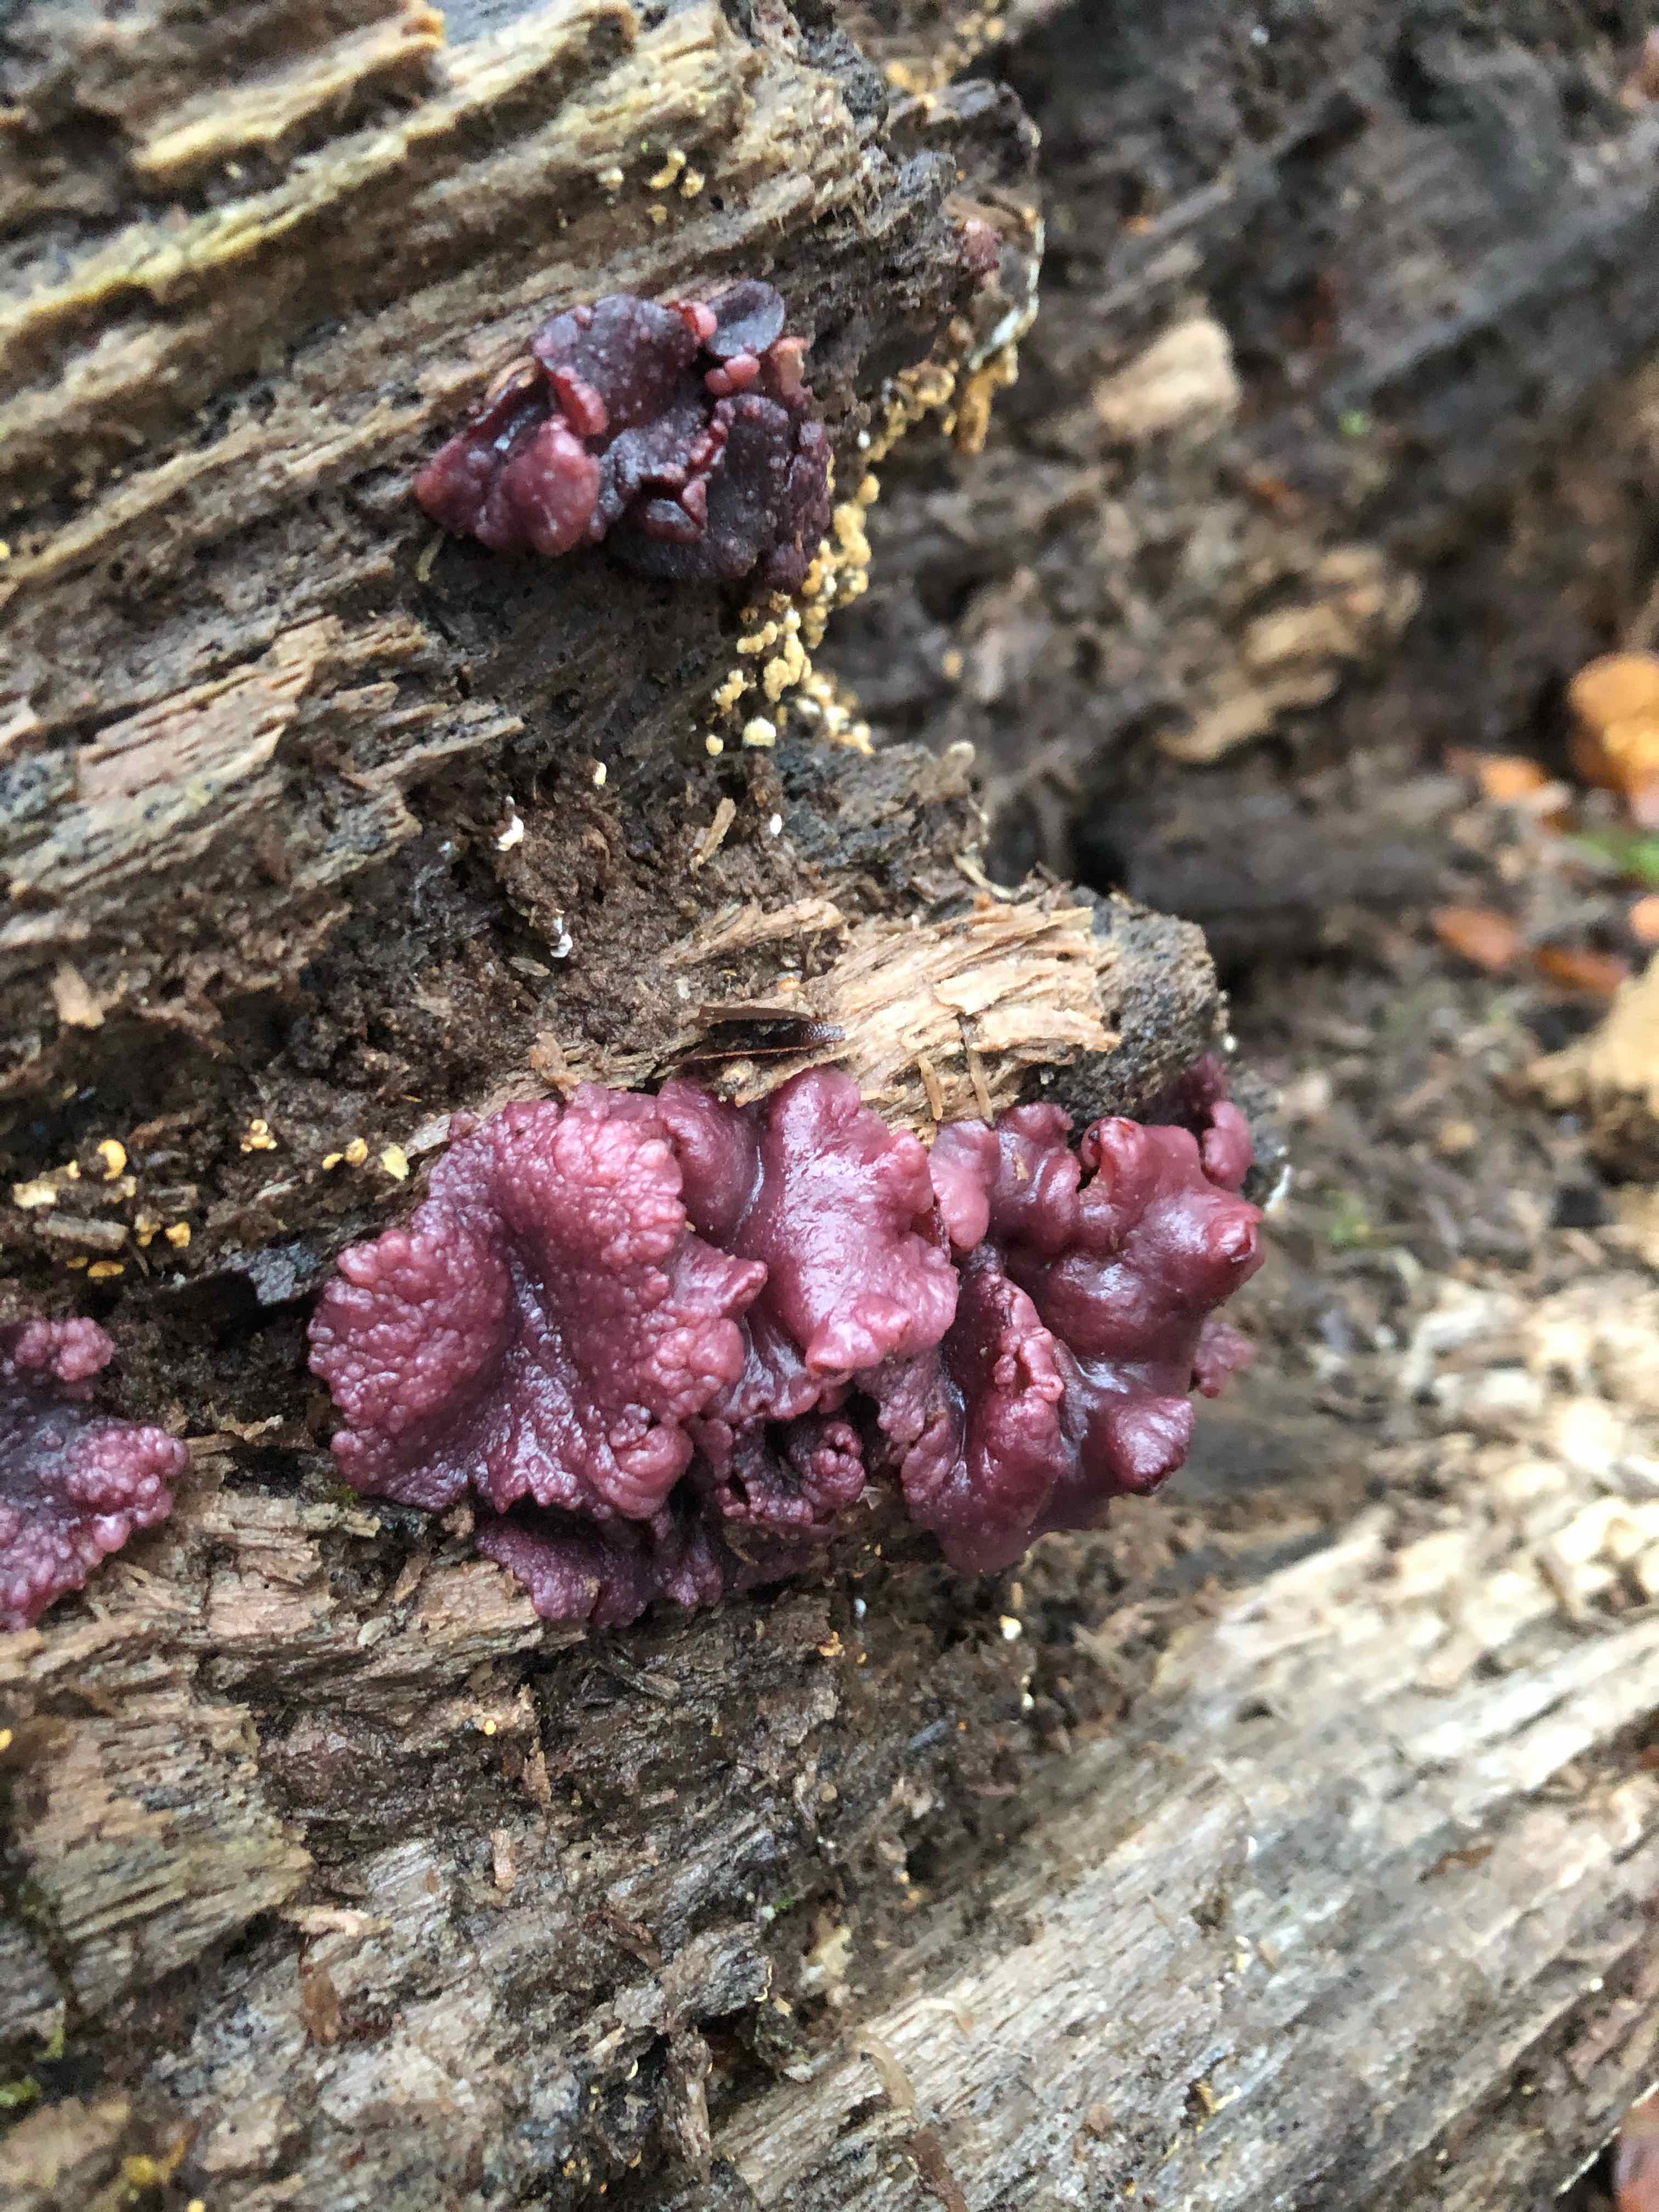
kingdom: Fungi
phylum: Ascomycota
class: Leotiomycetes
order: Helotiales
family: Gelatinodiscaceae
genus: Ascocoryne
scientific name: Ascocoryne sarcoides
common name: rødlilla sejskive
